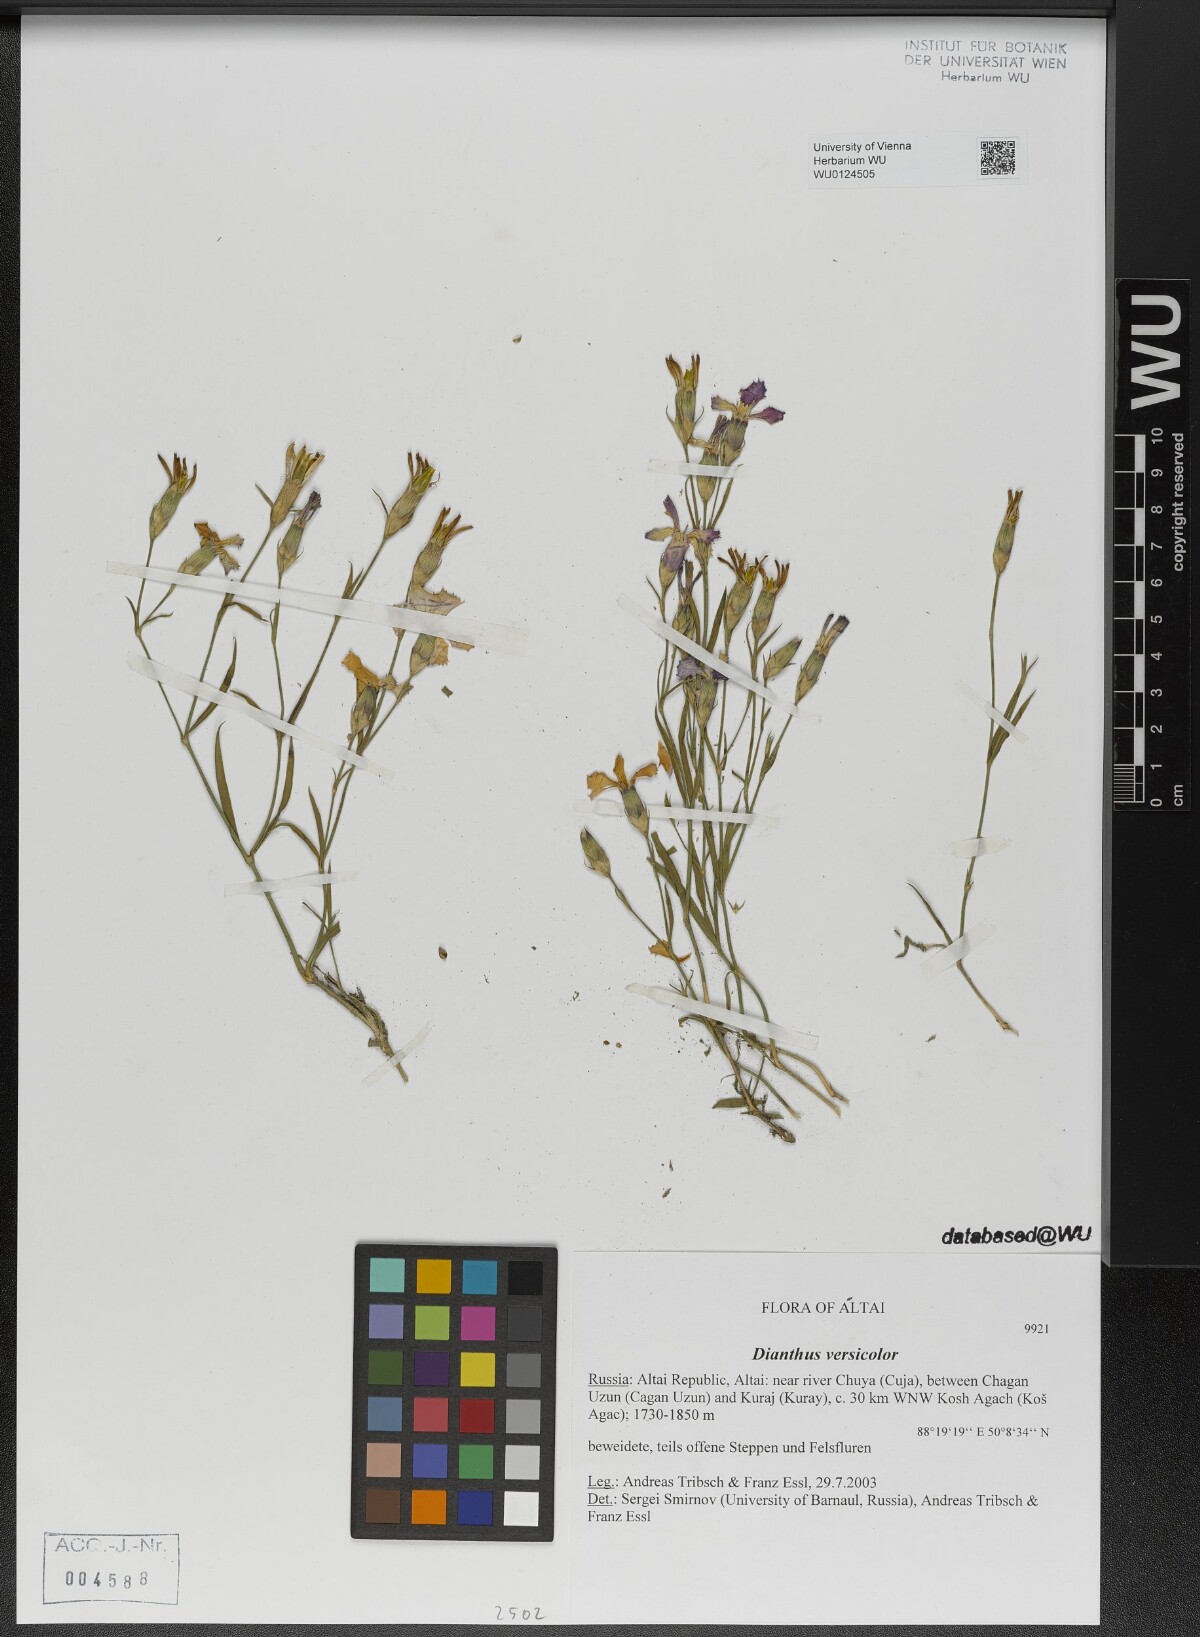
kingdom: Plantae
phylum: Tracheophyta
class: Magnoliopsida
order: Caryophyllales
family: Caryophyllaceae
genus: Dianthus
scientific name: Dianthus chinensis
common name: Rainbow pink
